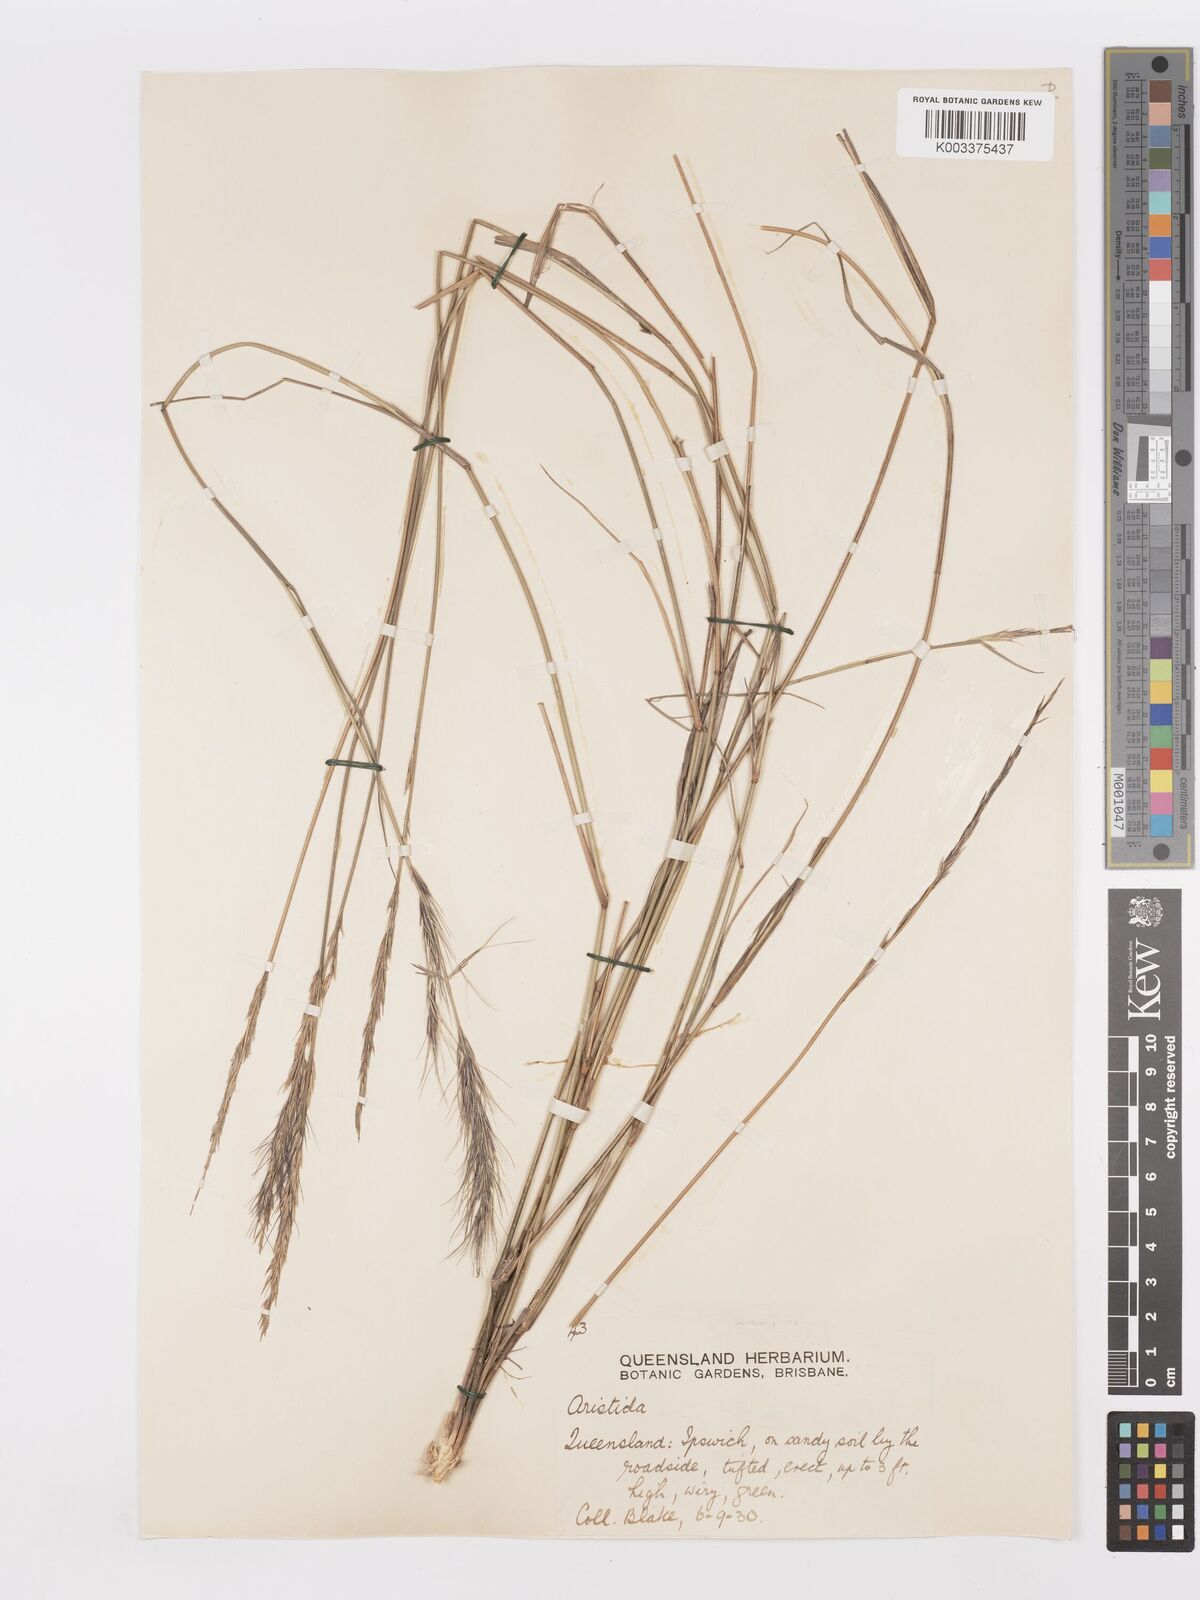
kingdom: Plantae
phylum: Tracheophyta
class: Liliopsida
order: Poales
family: Poaceae
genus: Aristida
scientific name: Aristida ramosa
